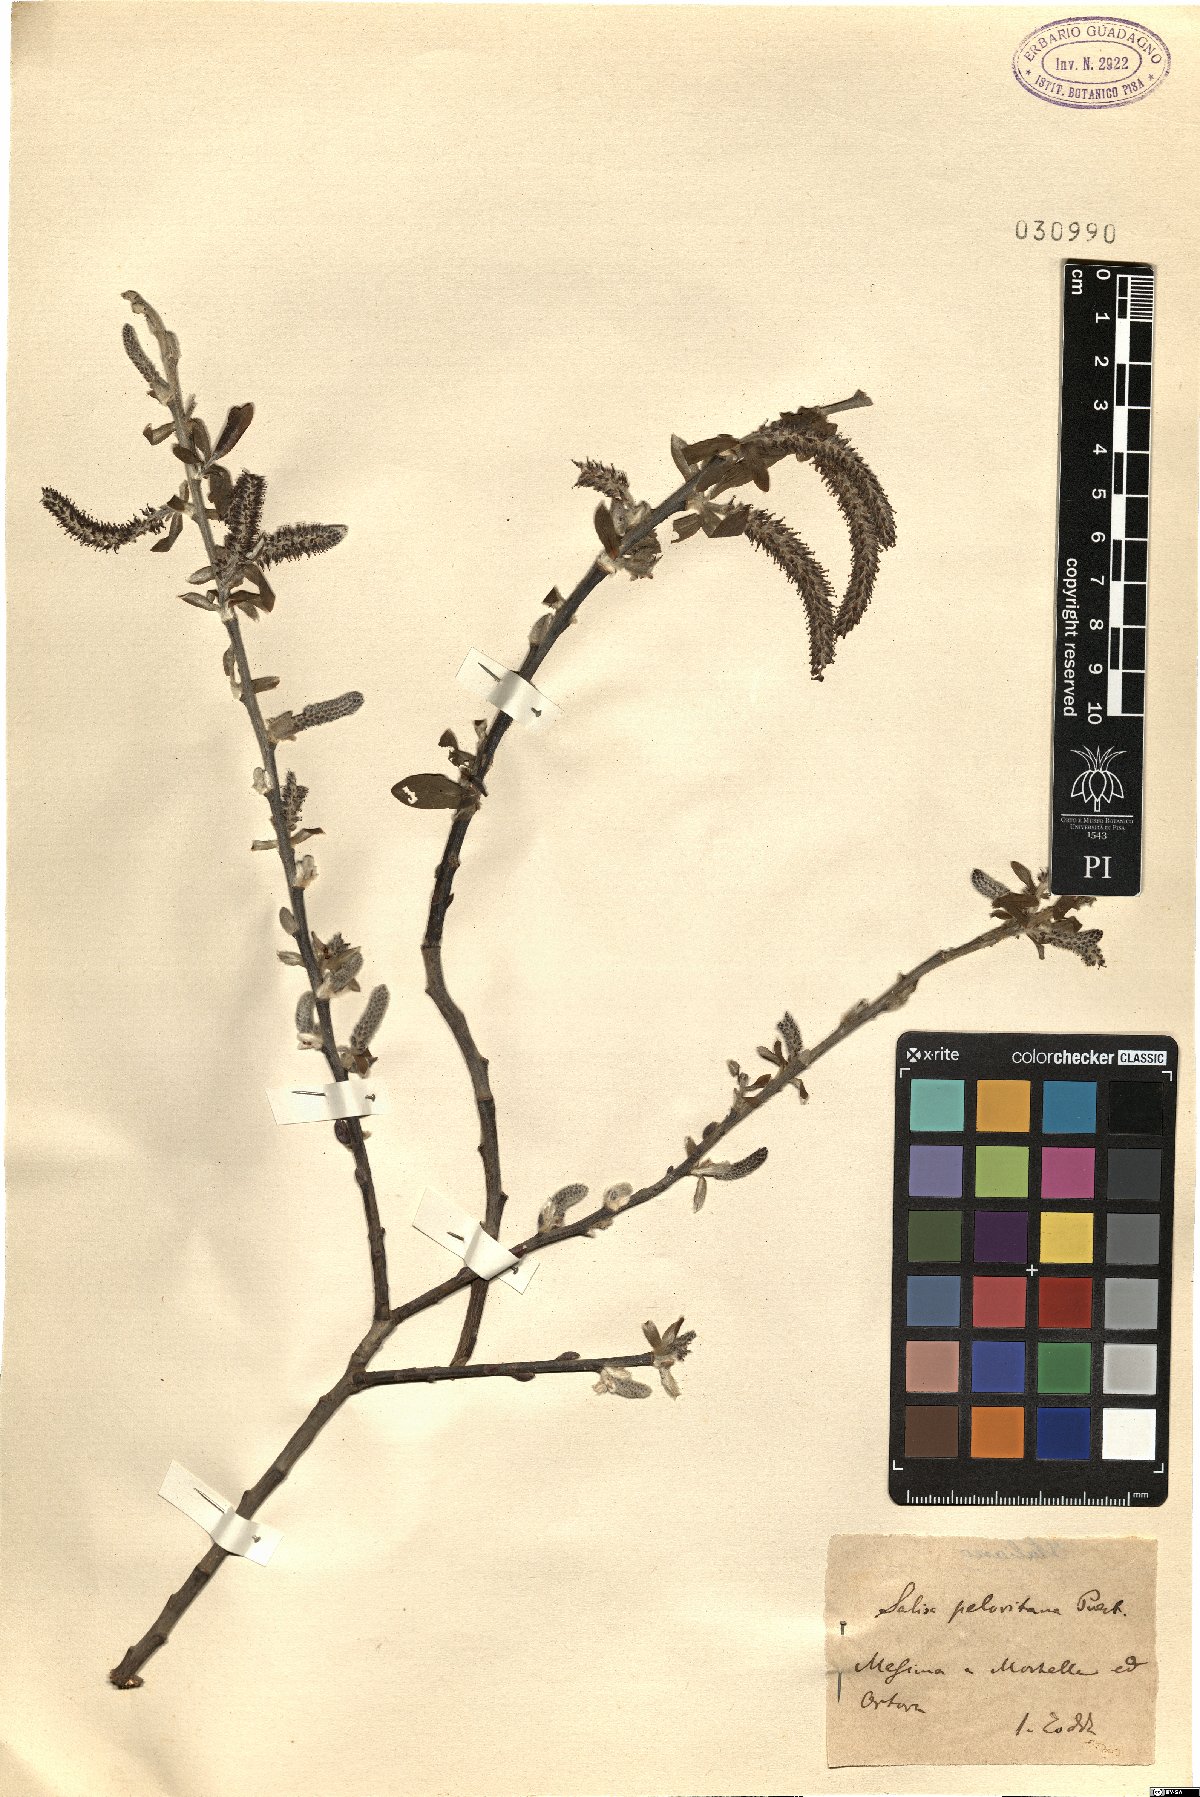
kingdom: Plantae
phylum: Tracheophyta
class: Magnoliopsida
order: Malpighiales
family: Salicaceae
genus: Salix
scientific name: Salix peloritana
